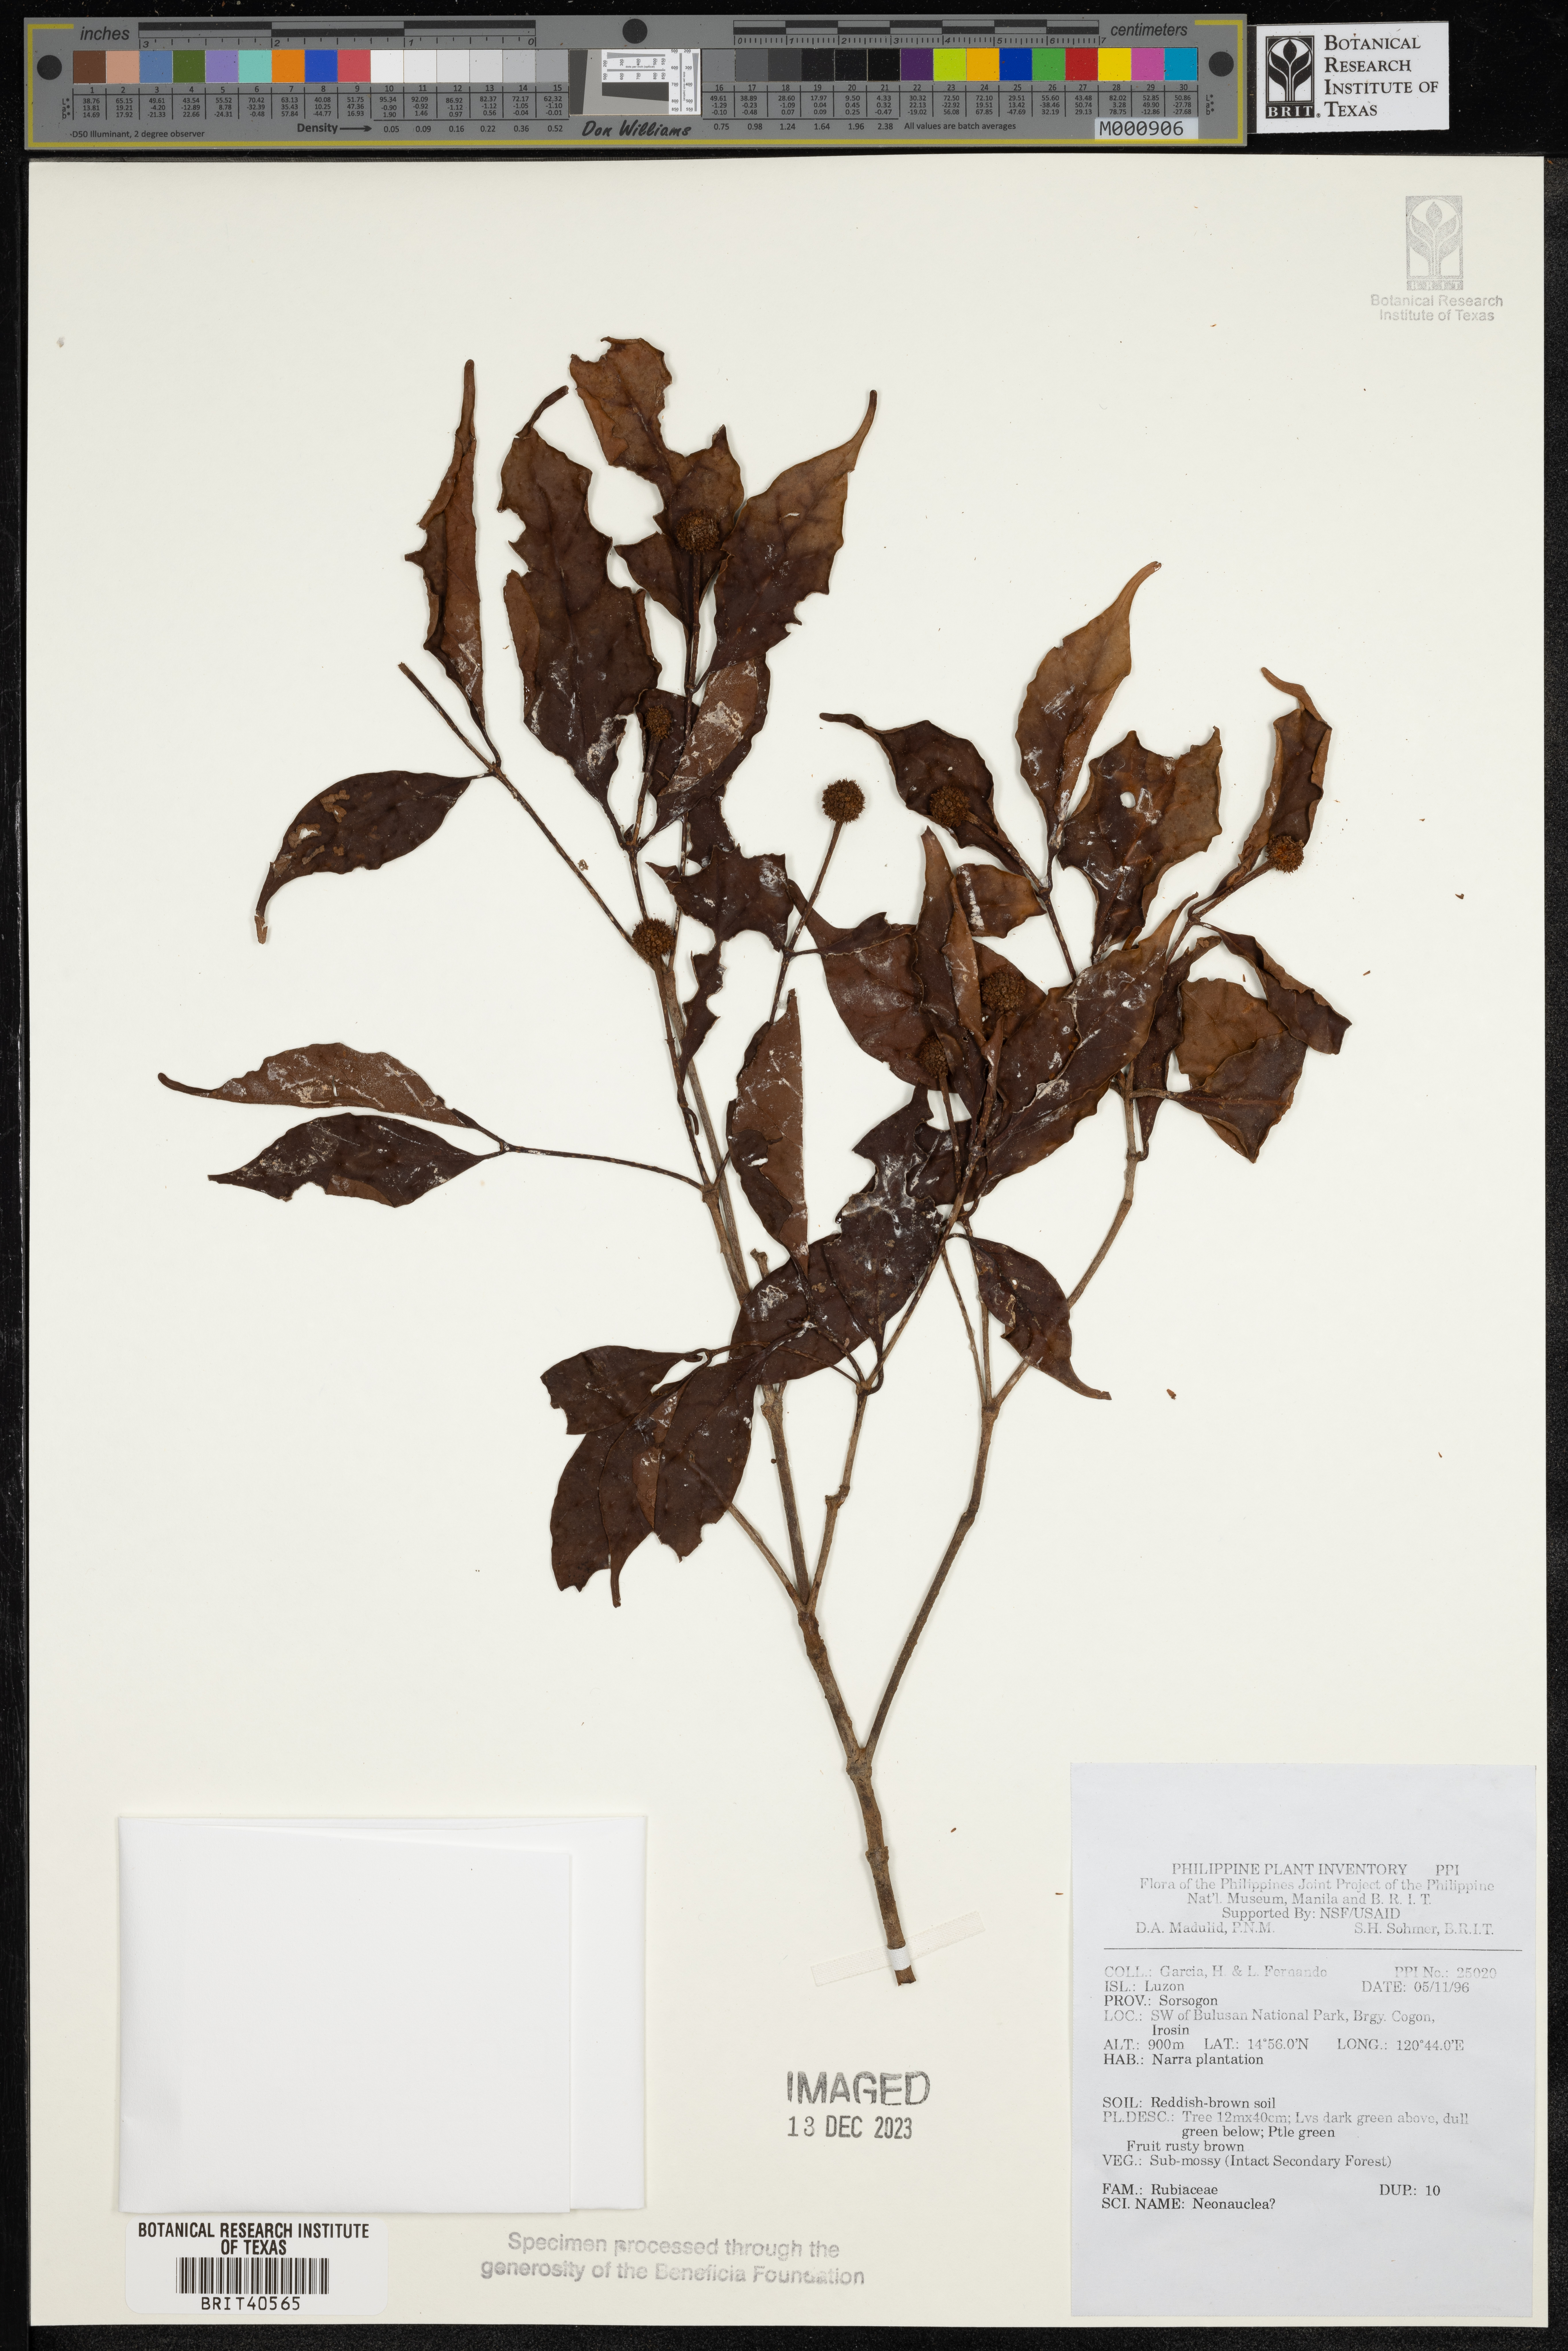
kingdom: Plantae
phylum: Tracheophyta
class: Magnoliopsida
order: Gentianales
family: Rubiaceae
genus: Neonauclea
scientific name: Neonauclea
